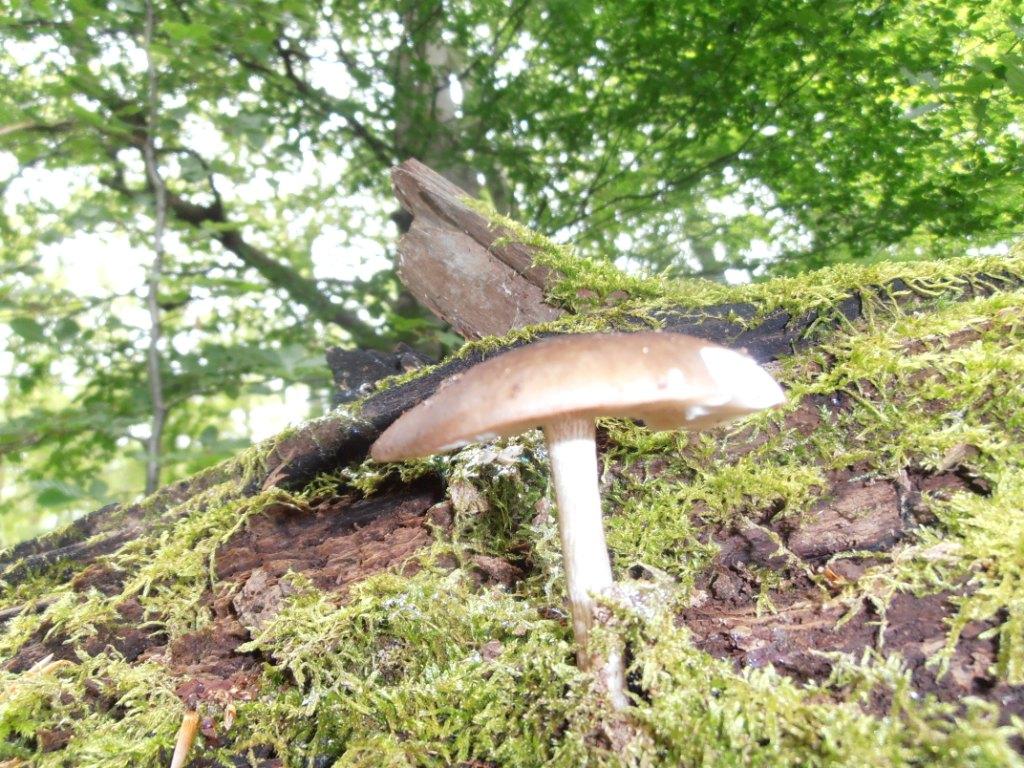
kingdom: Fungi
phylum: Basidiomycota
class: Agaricomycetes
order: Agaricales
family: Pluteaceae
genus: Pluteus
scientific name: Pluteus cervinus
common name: sodfarvet skærmhat
